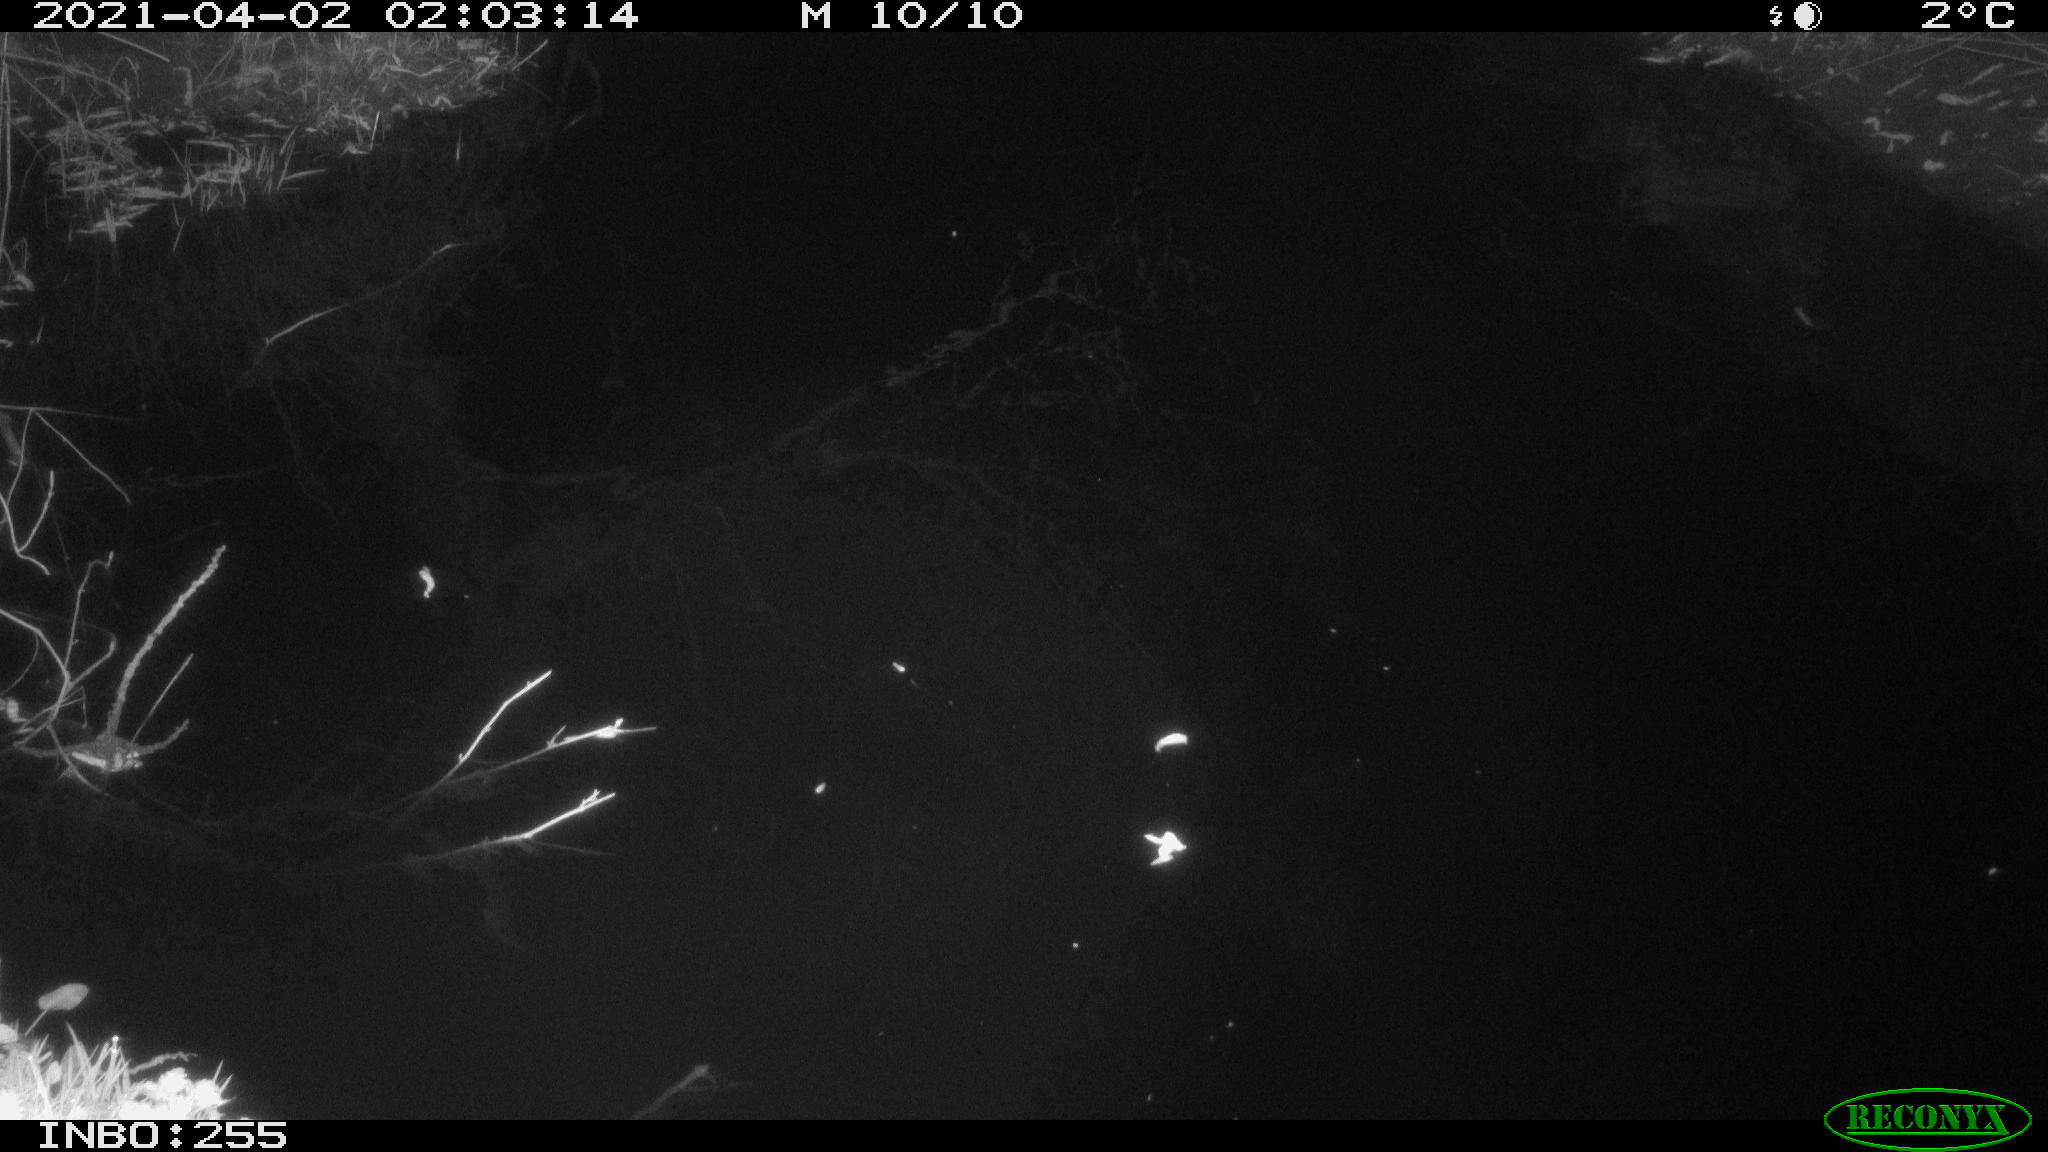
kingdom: Animalia
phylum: Chordata
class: Aves
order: Anseriformes
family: Anatidae
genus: Anas
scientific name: Anas platyrhynchos
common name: Mallard
